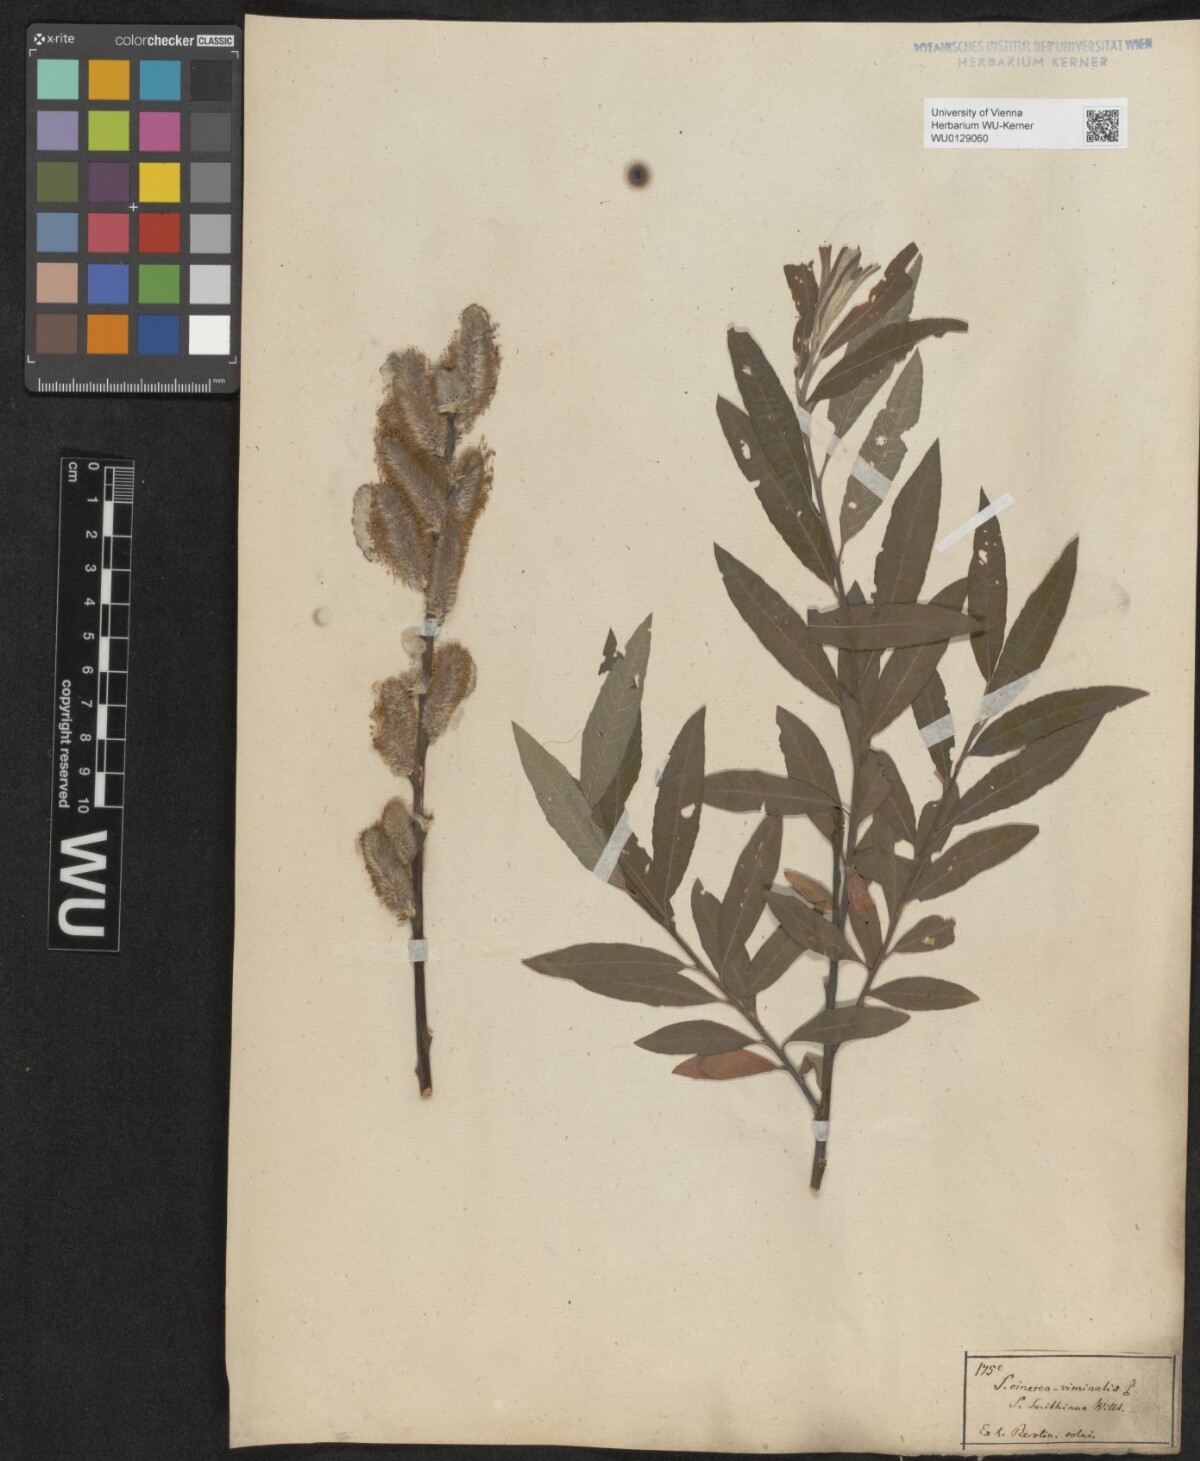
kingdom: Plantae
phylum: Tracheophyta
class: Magnoliopsida
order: Malpighiales
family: Salicaceae
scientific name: Salicaceae
